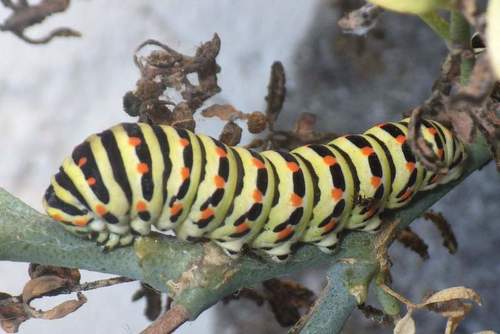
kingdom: Animalia
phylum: Arthropoda
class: Insecta
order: Lepidoptera
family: Papilionidae
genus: Papilio
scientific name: Papilio machaon
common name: Swallowtail
